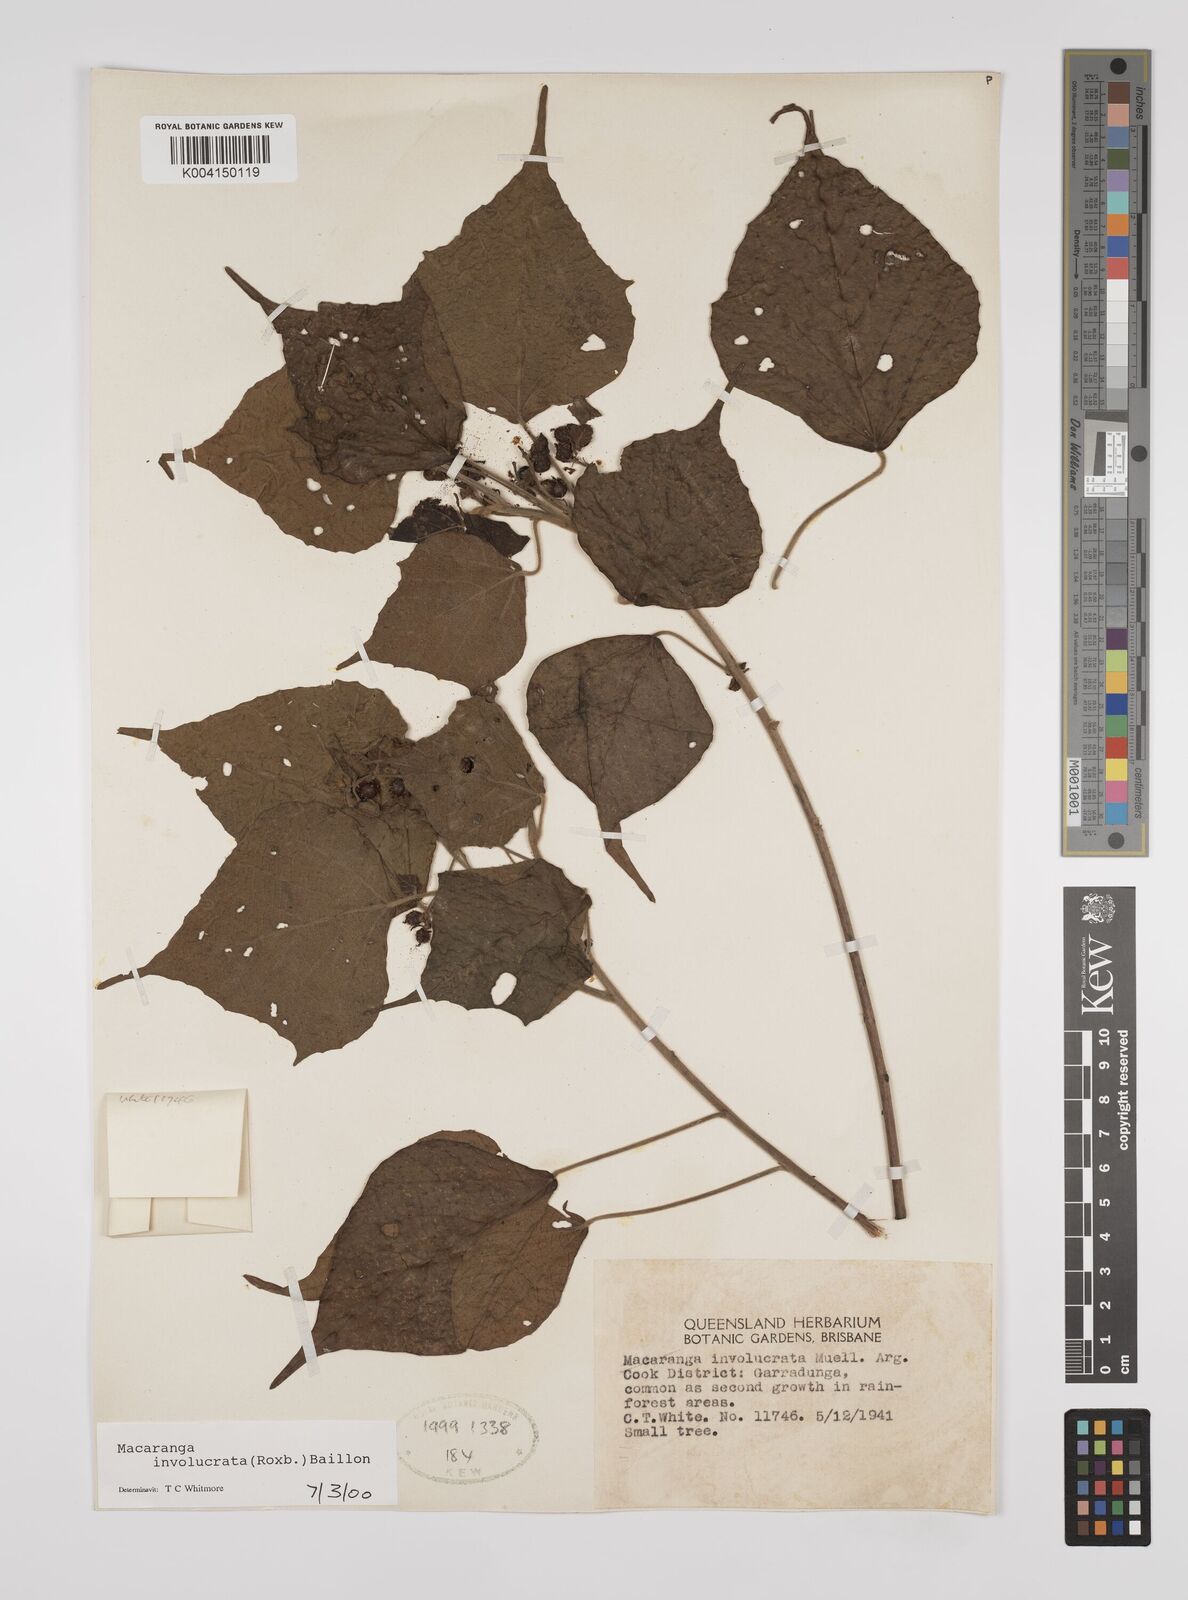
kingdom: Plantae
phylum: Tracheophyta
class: Magnoliopsida
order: Malpighiales
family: Euphorbiaceae
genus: Macaranga
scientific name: Macaranga involucrata
